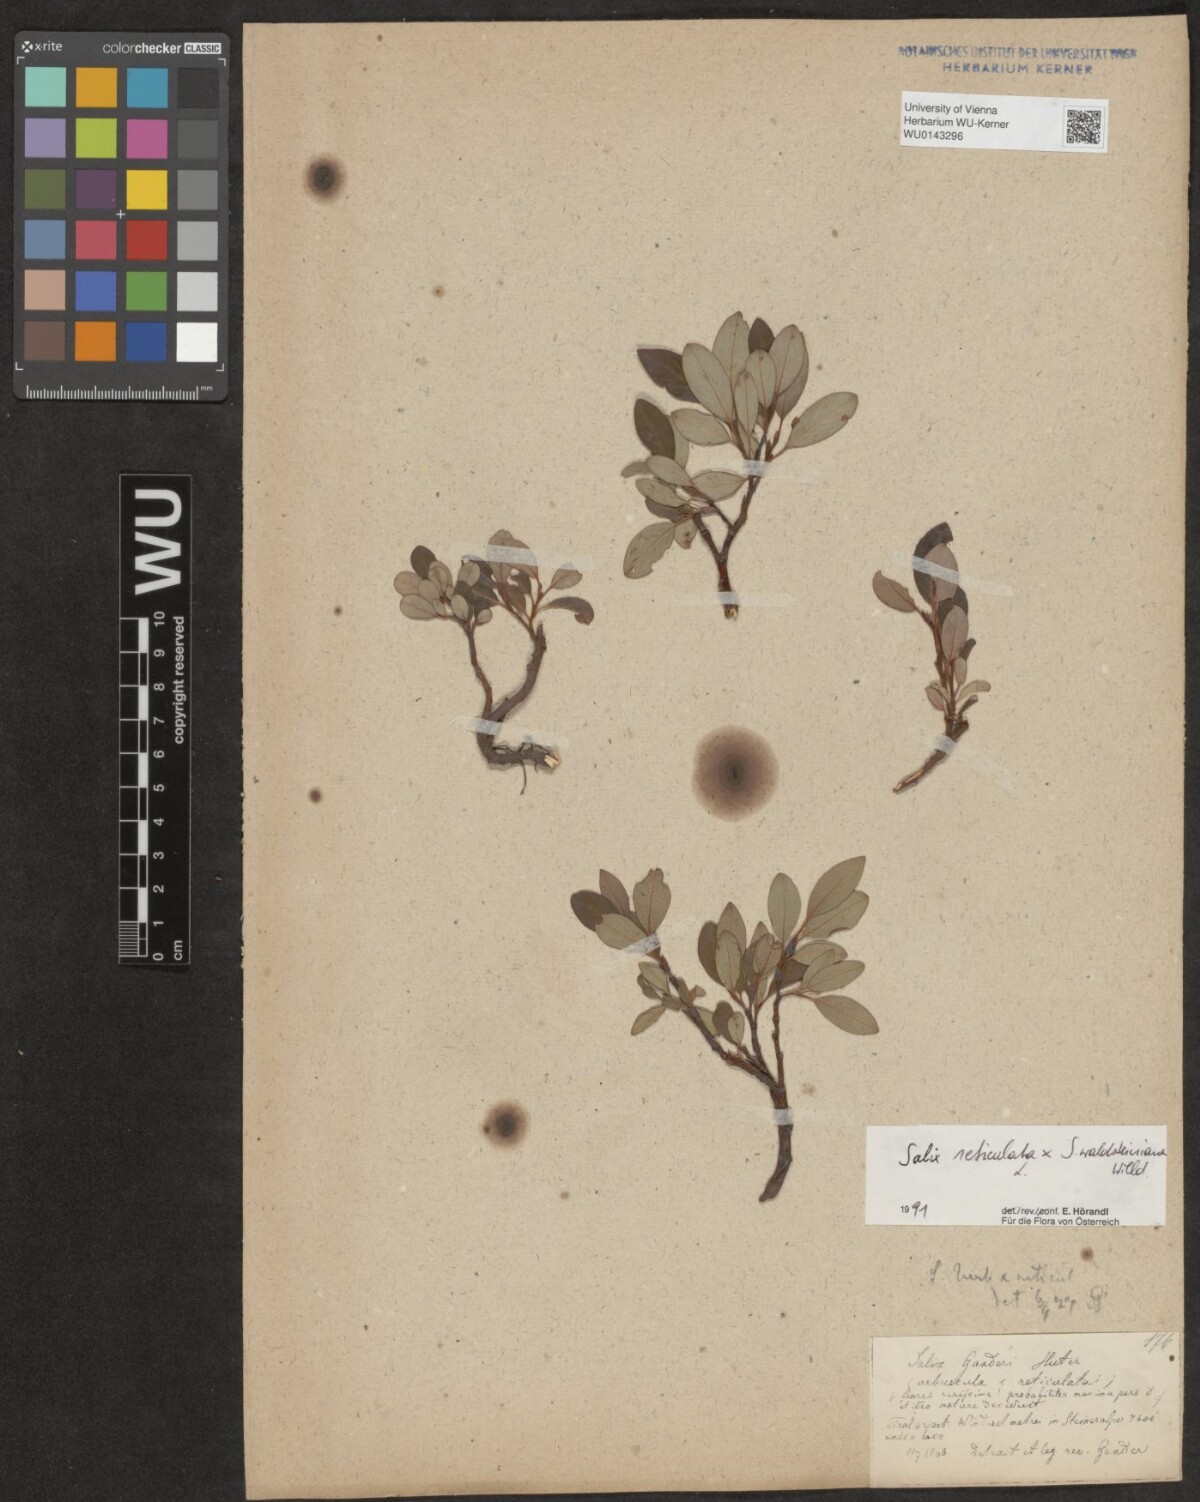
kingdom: Plantae
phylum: Tracheophyta
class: Magnoliopsida
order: Malpighiales
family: Salicaceae
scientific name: Salicaceae
